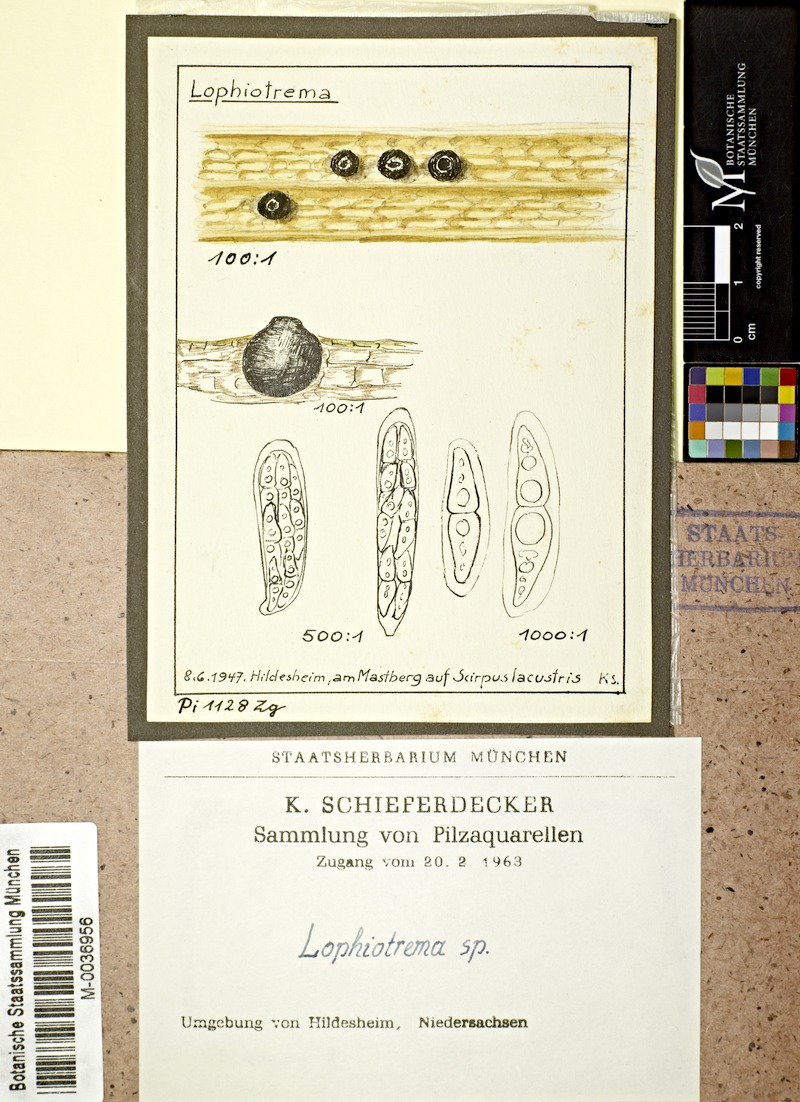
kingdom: Plantae
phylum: Tracheophyta
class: Liliopsida
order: Poales
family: Cyperaceae
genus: Schoenoplectus
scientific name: Schoenoplectus lacustris
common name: Common club-rush
